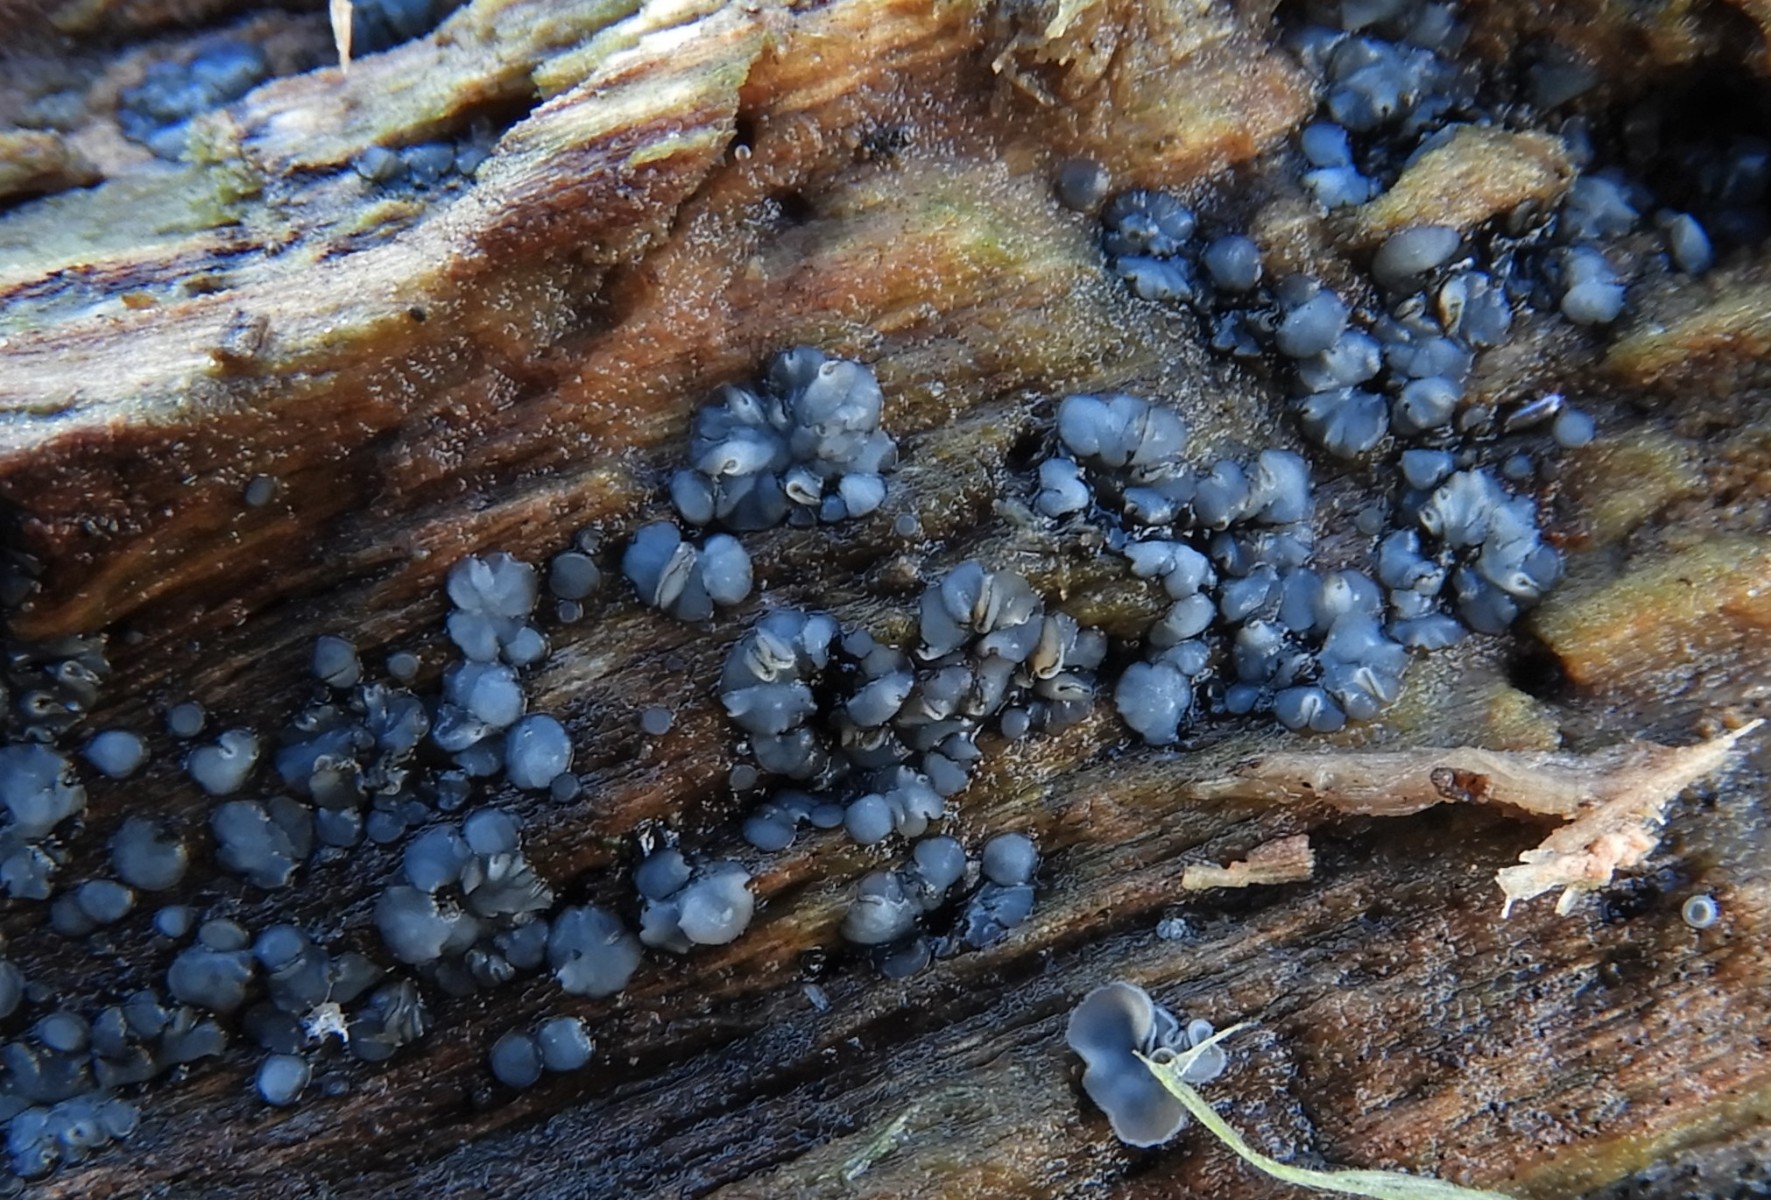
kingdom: Fungi
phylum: Ascomycota
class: Leotiomycetes
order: Helotiales
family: Mollisiaceae
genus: Mollisia
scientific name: Mollisia
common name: gråskive
